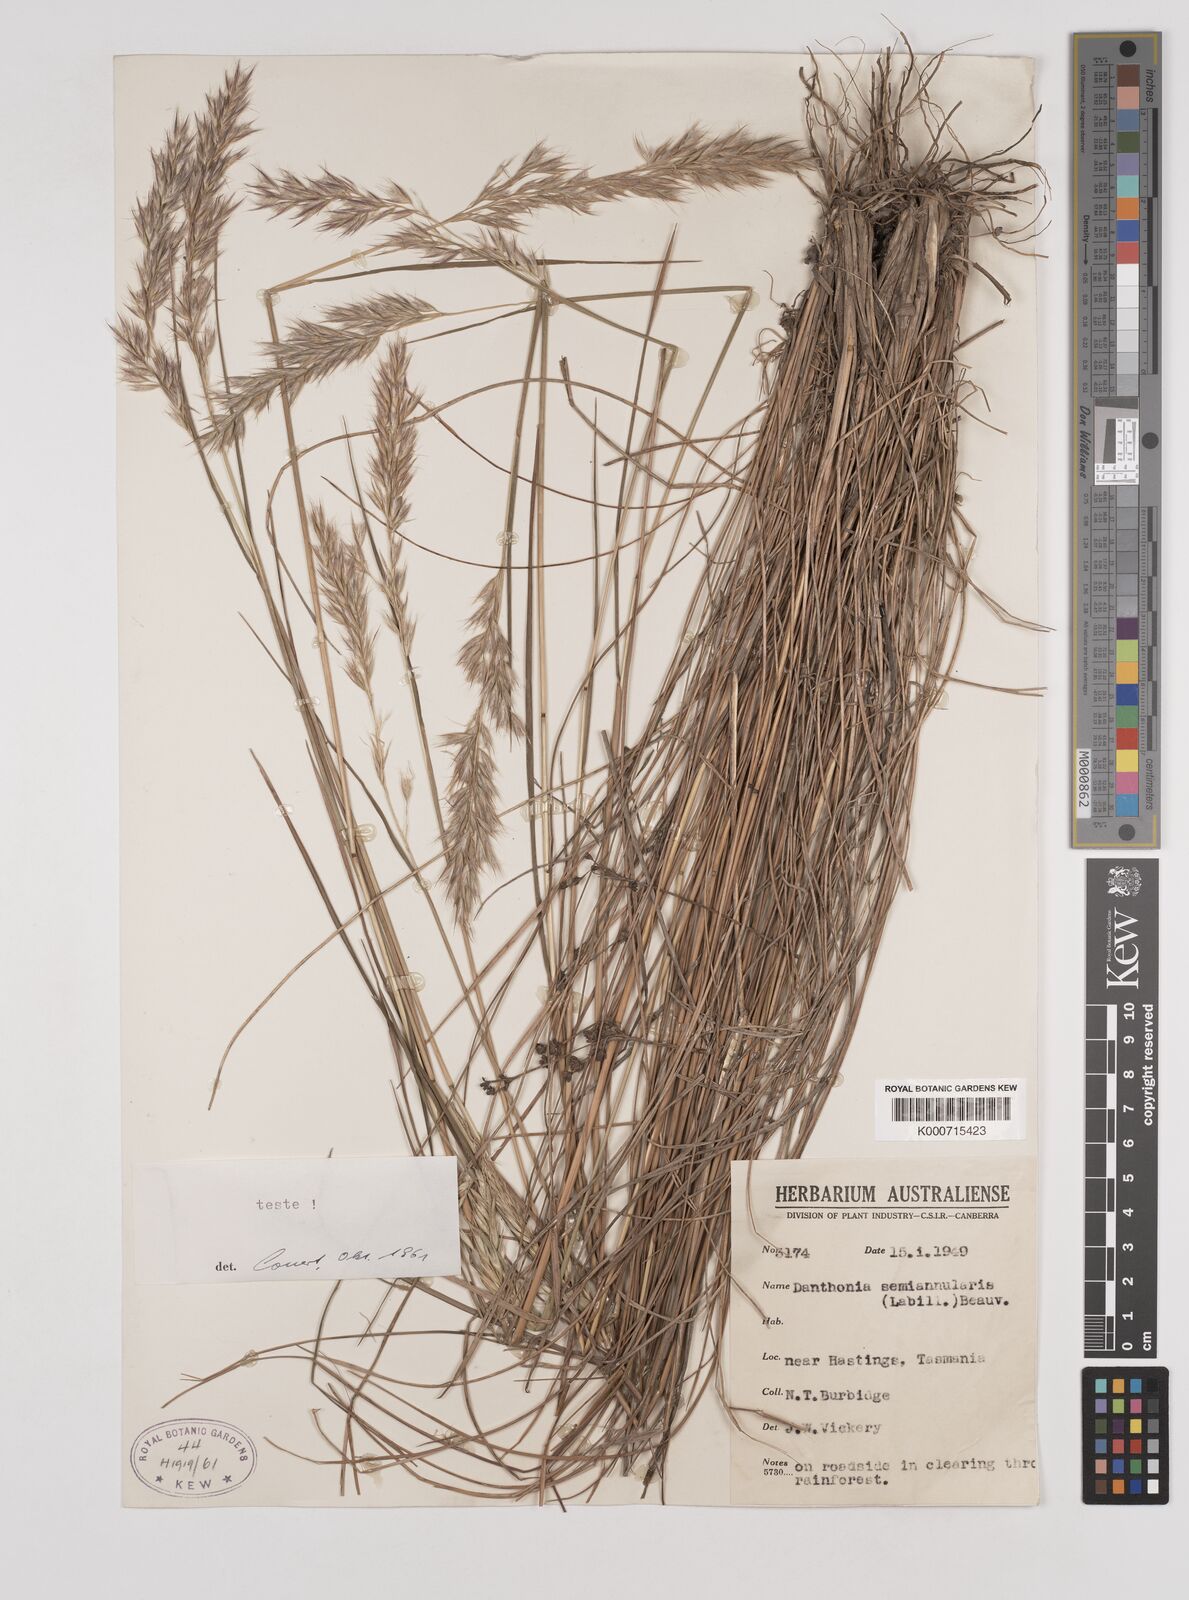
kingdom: Plantae
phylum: Tracheophyta
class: Liliopsida
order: Poales
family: Poaceae
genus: Rytidosperma
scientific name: Rytidosperma semiannulare
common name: Tasmanian wallaby grass
